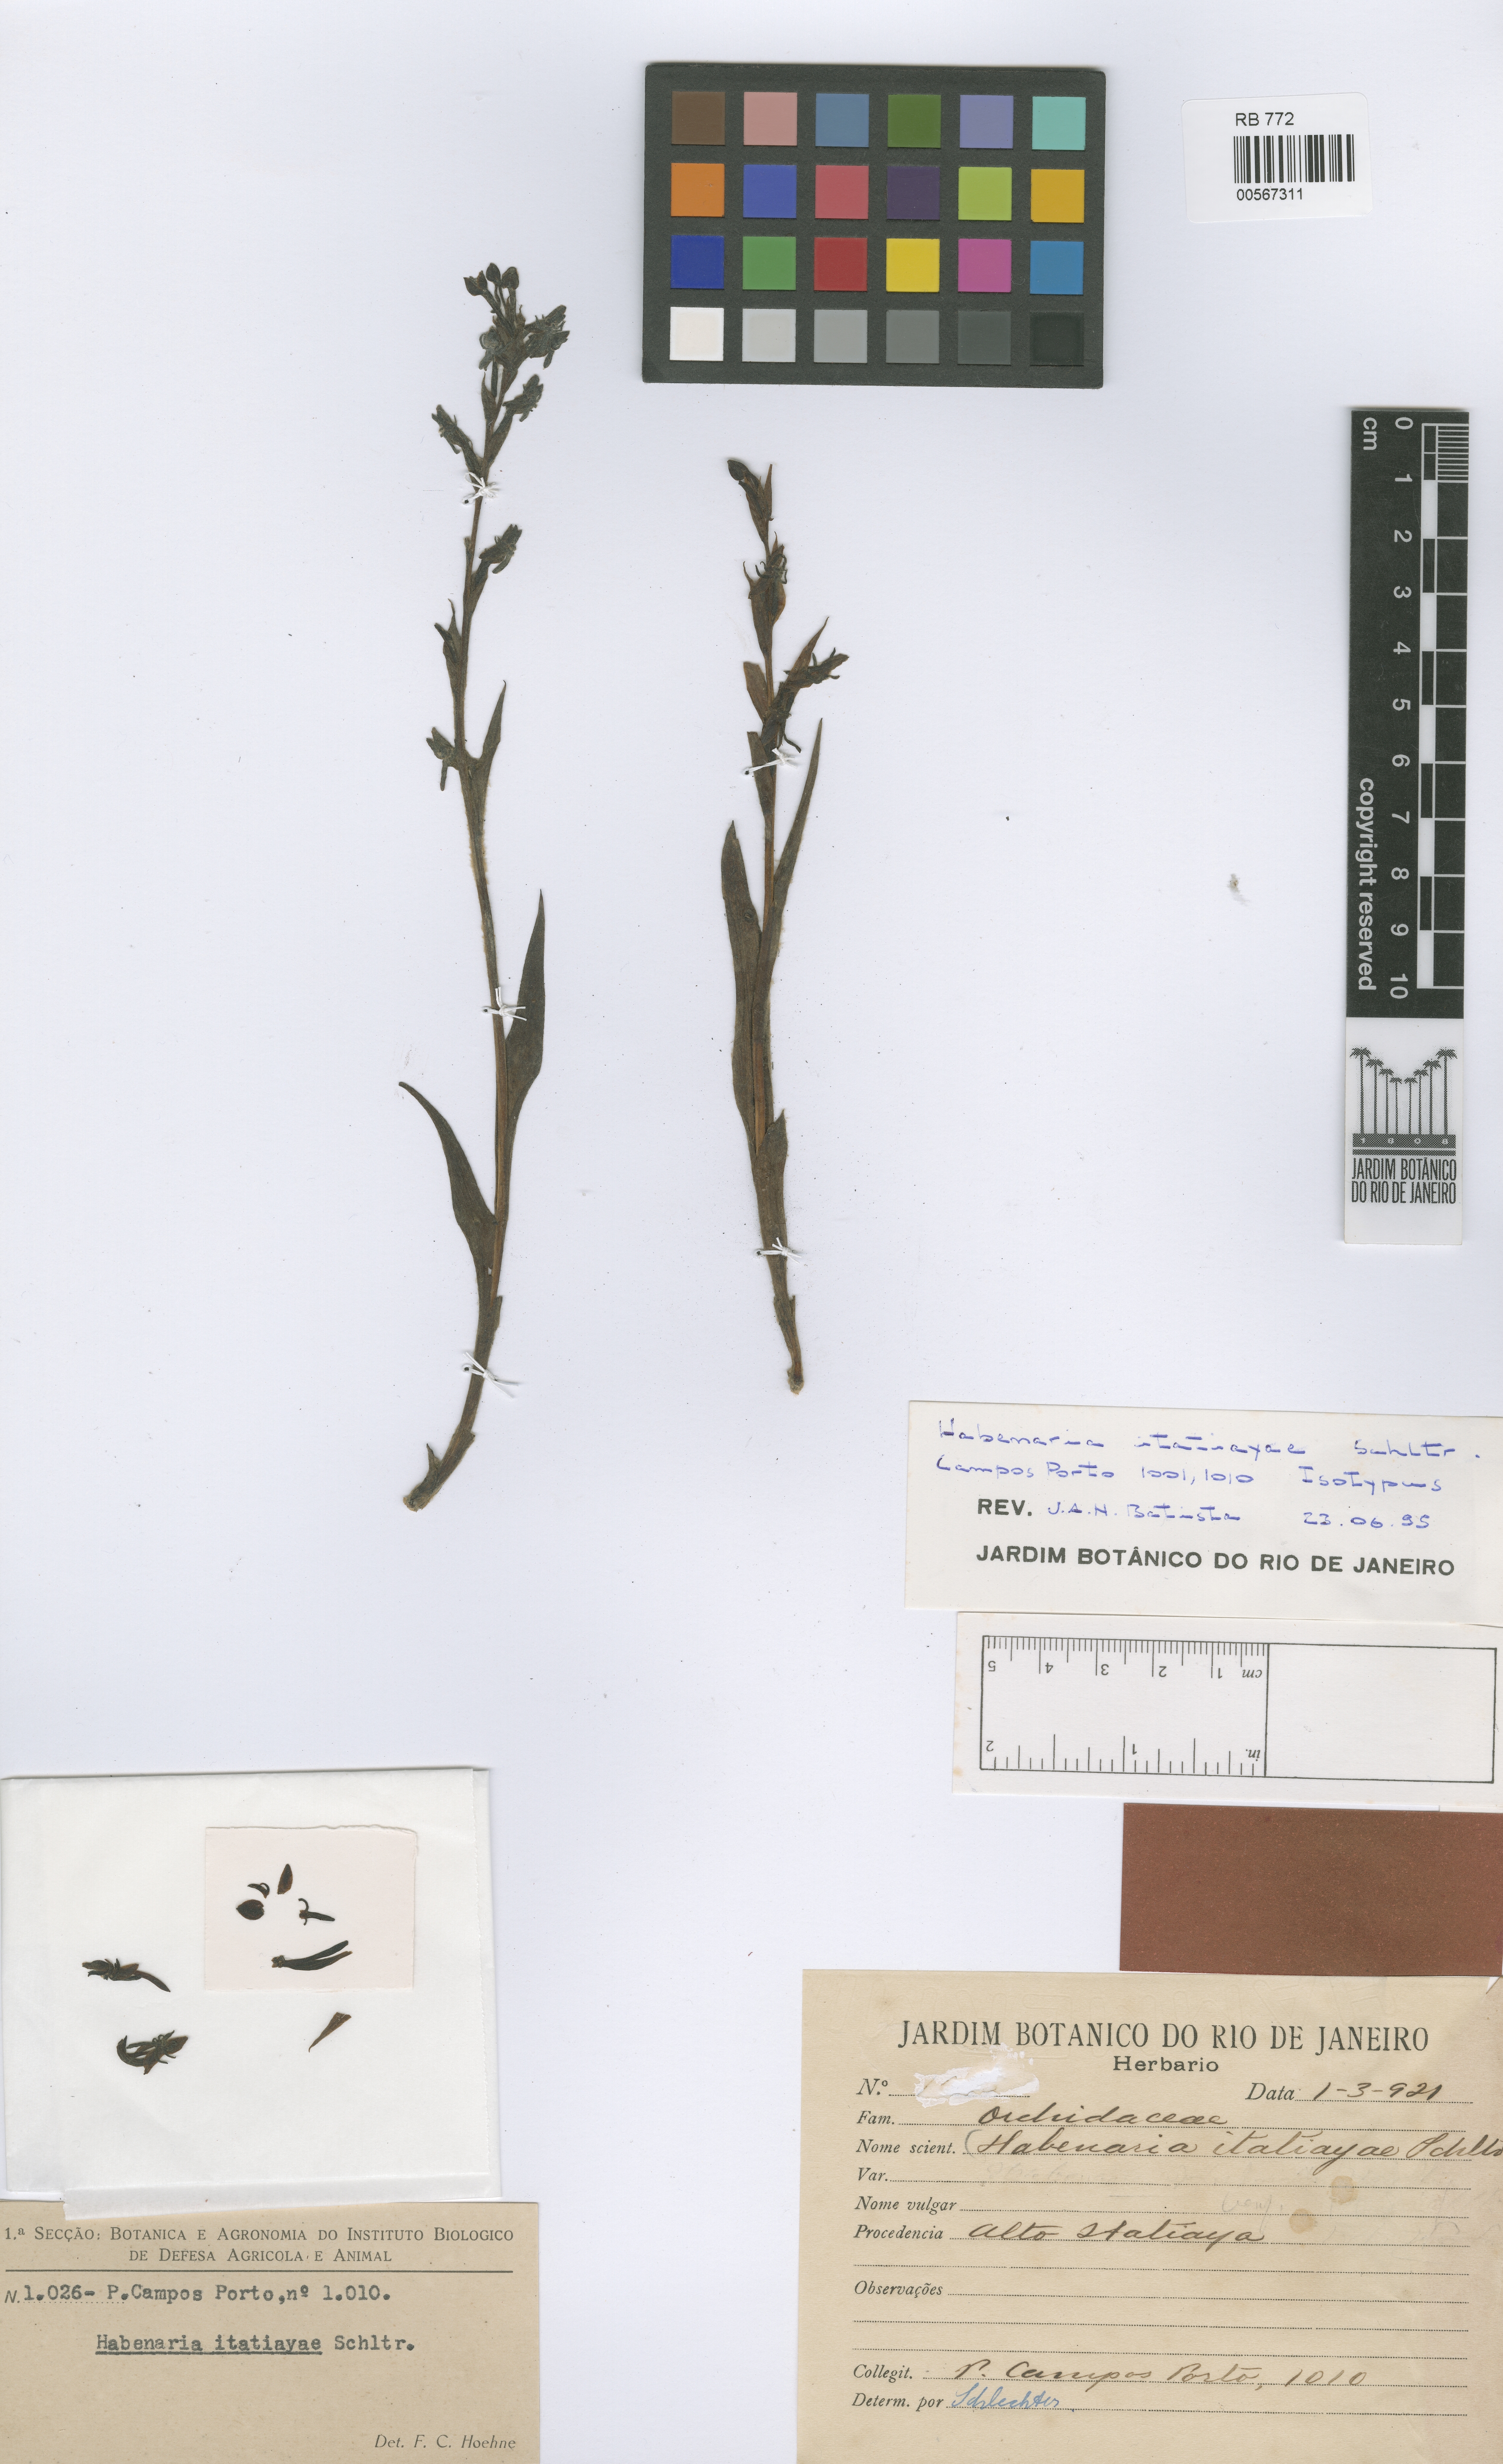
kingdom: Plantae
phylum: Tracheophyta
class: Liliopsida
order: Asparagales
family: Orchidaceae
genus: Habenaria
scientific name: Habenaria itatiayae
